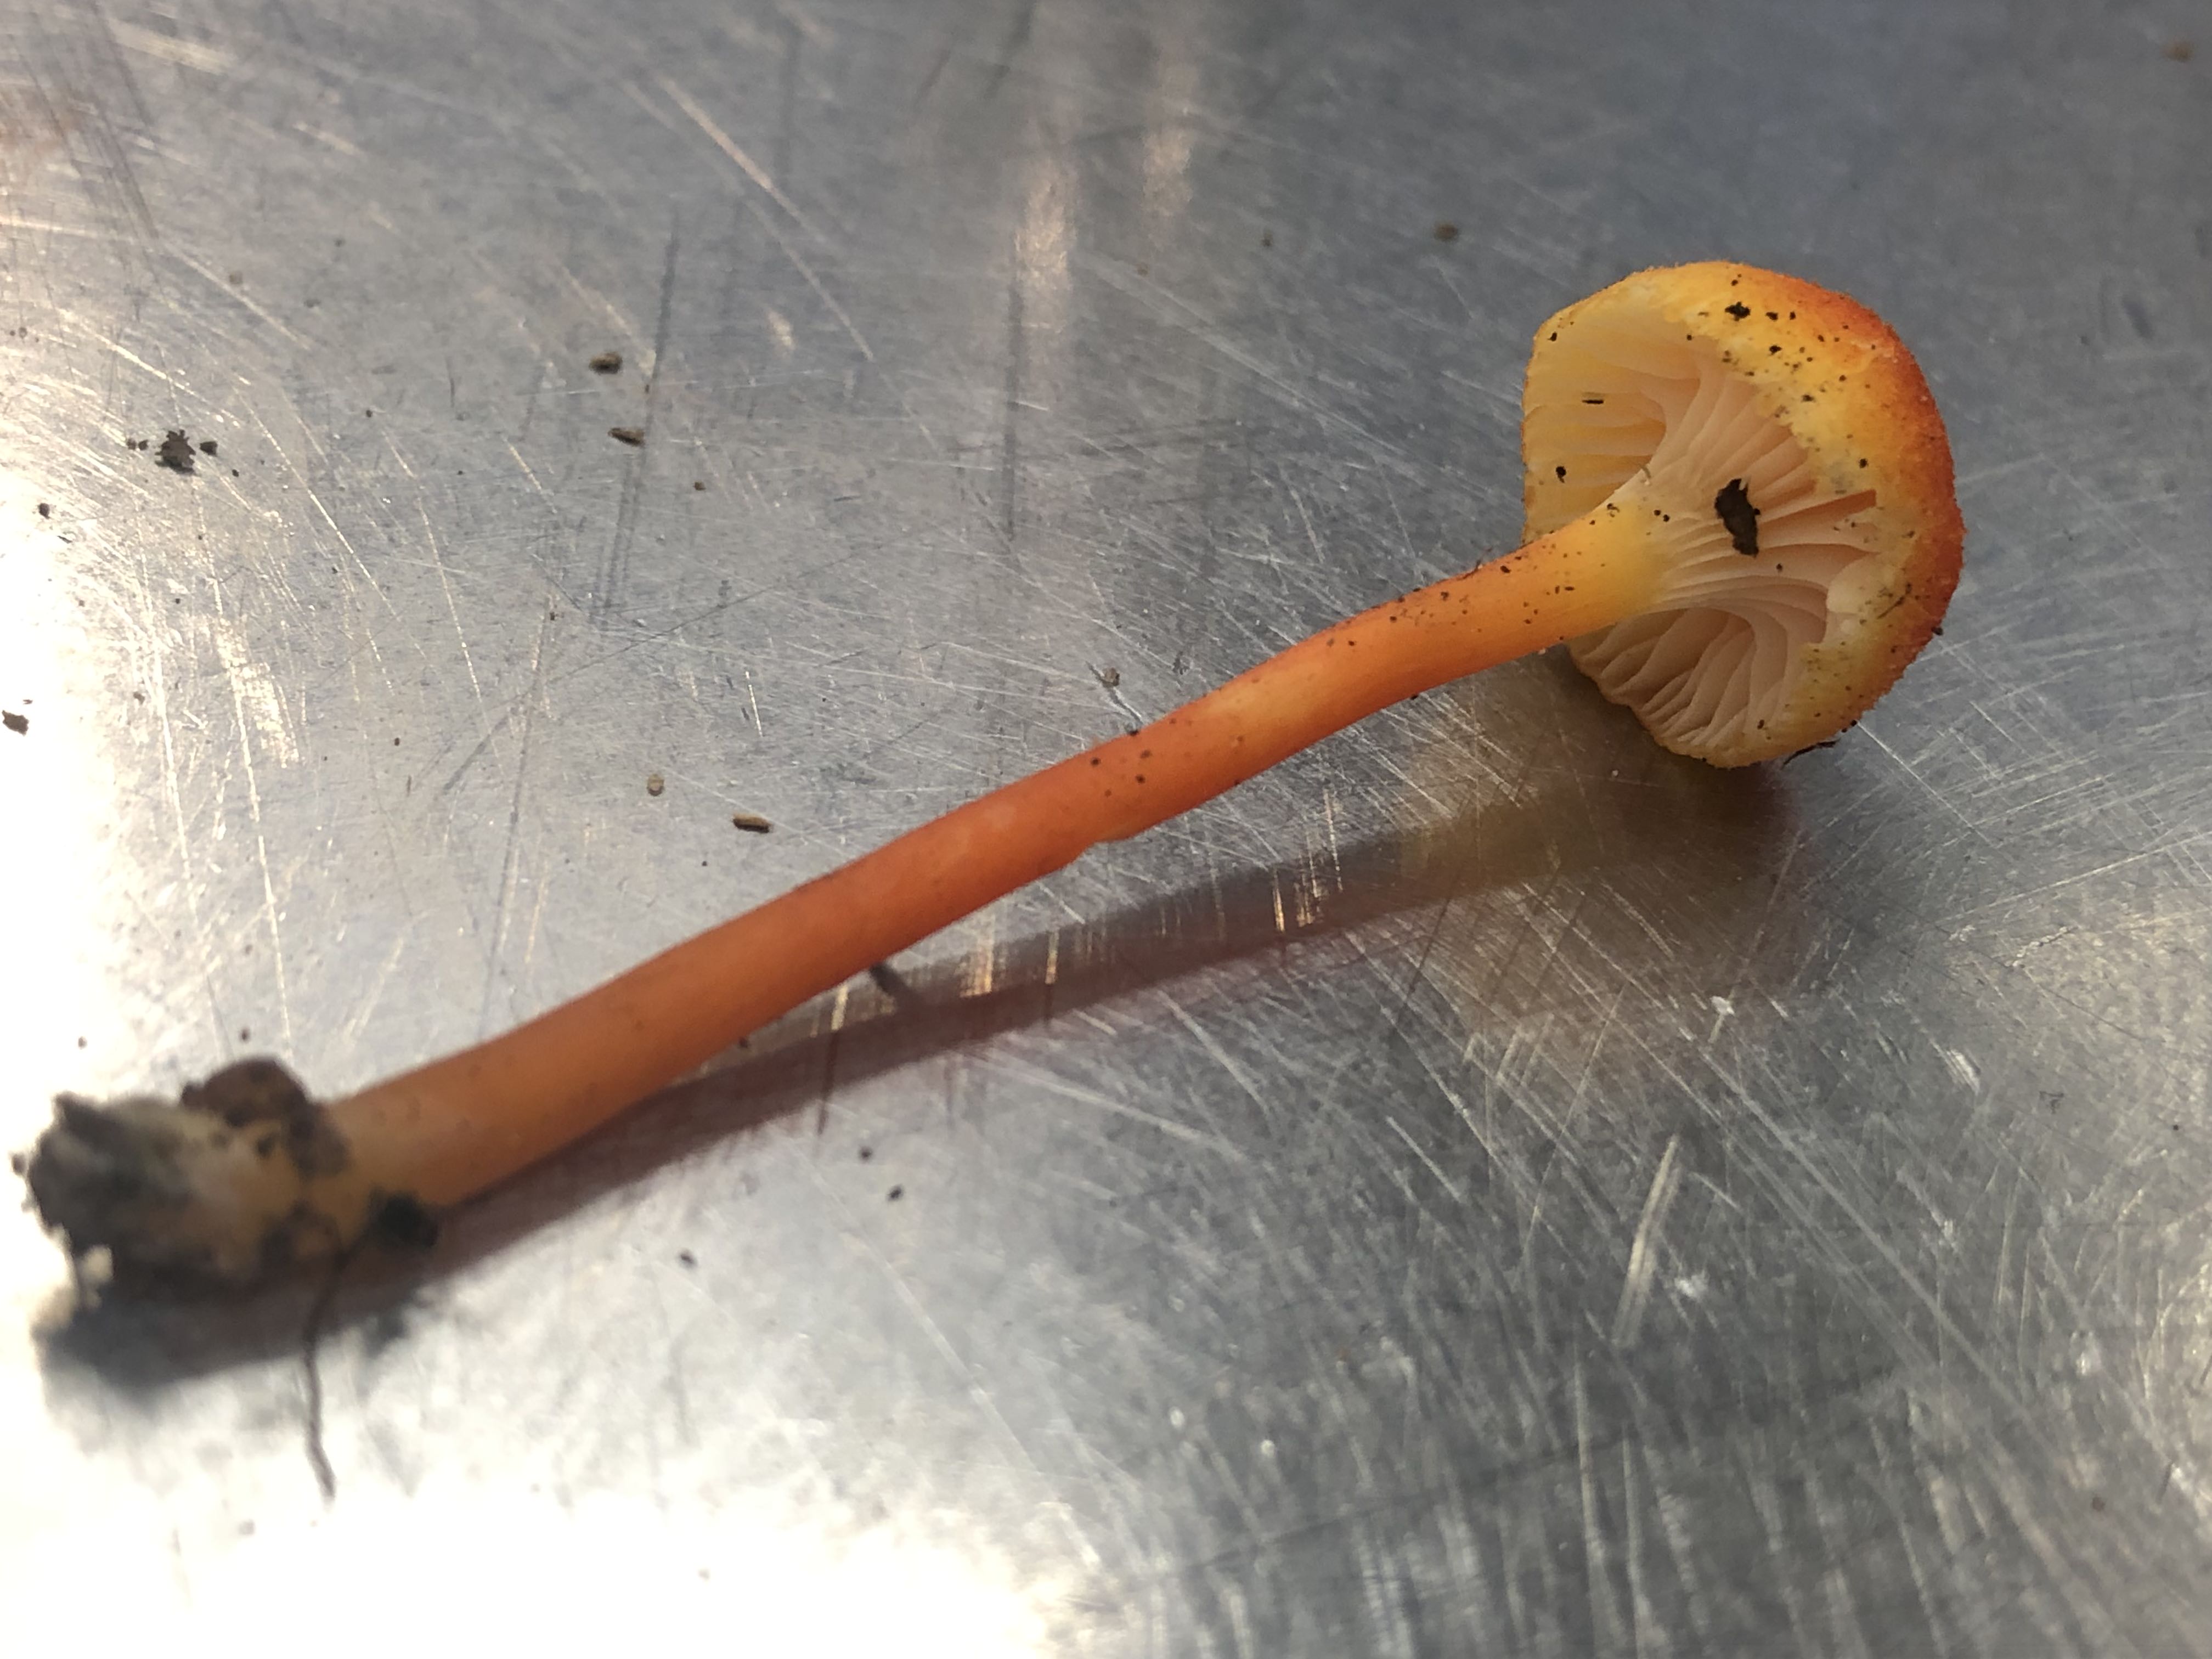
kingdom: Fungi
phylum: Basidiomycota
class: Agaricomycetes
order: Agaricales
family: Hygrophoraceae
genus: Hygrocybe
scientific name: Hygrocybe cantharellus
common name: kantarel-vokshat
